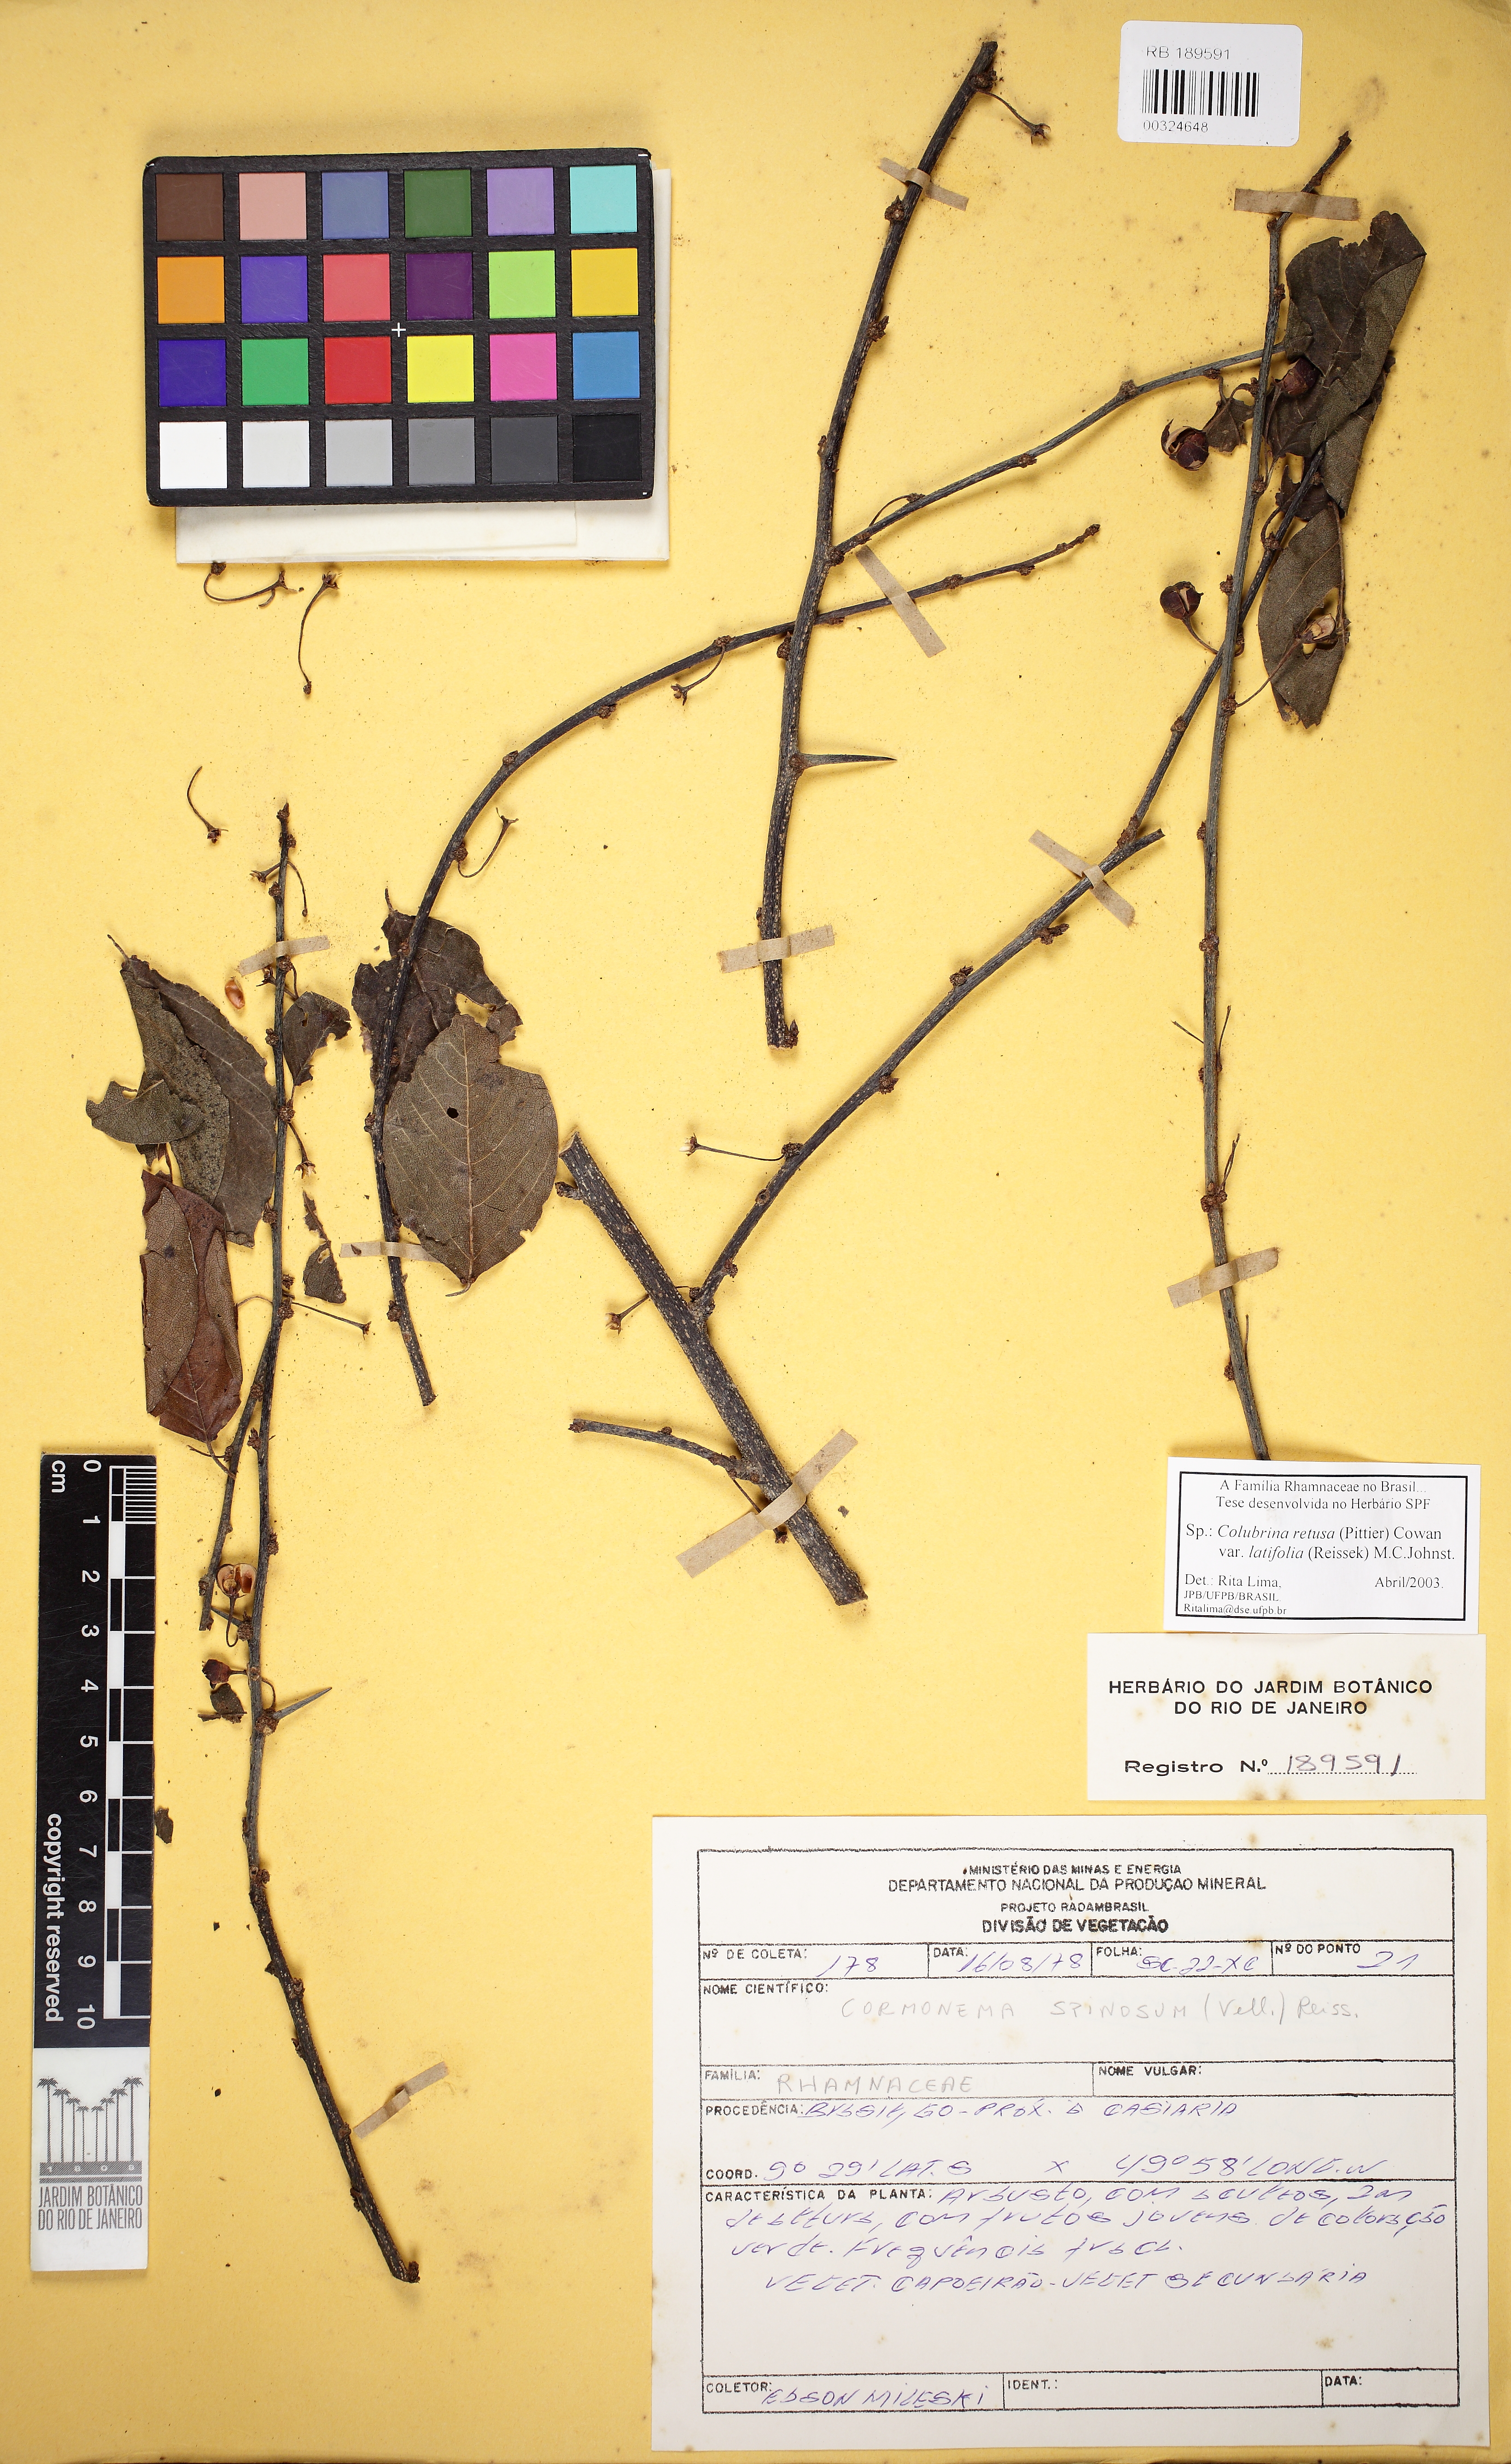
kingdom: Plantae
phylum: Tracheophyta
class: Magnoliopsida
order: Rosales
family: Rhamnaceae
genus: Colubrina
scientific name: Colubrina retusa
